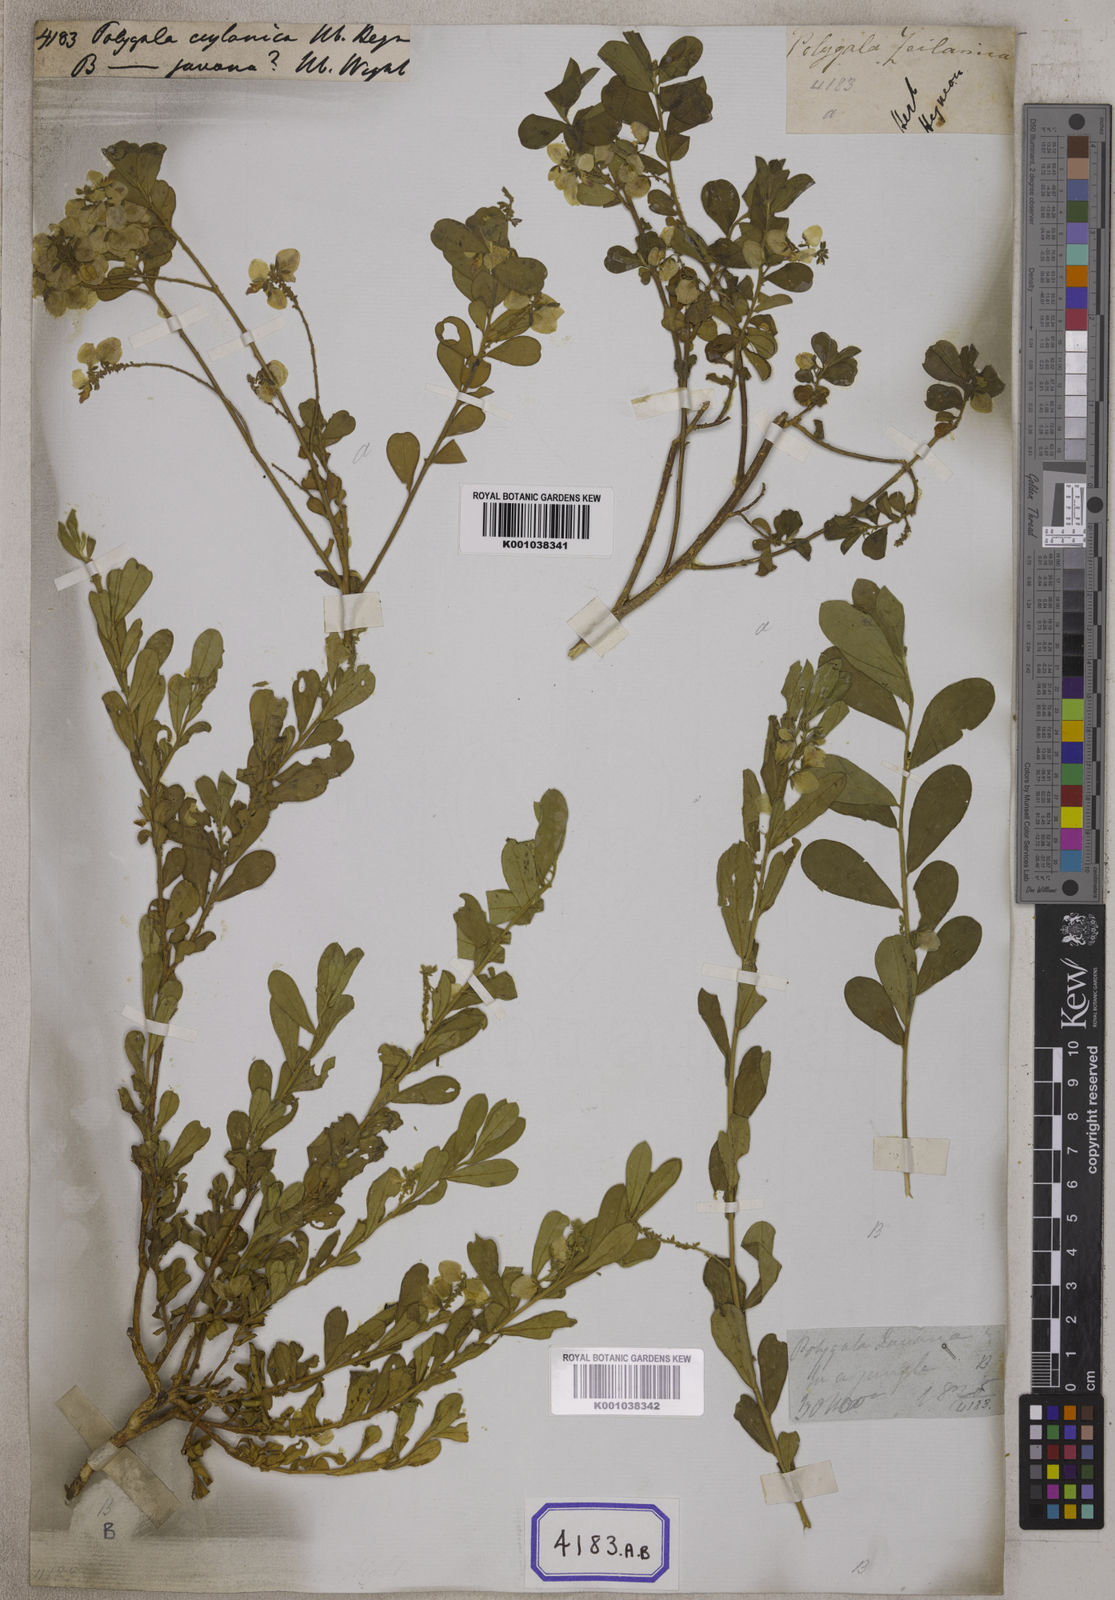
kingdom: Plantae
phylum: Tracheophyta
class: Magnoliopsida
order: Fabales
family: Polygalaceae
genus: Polygala
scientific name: Polygala javana
